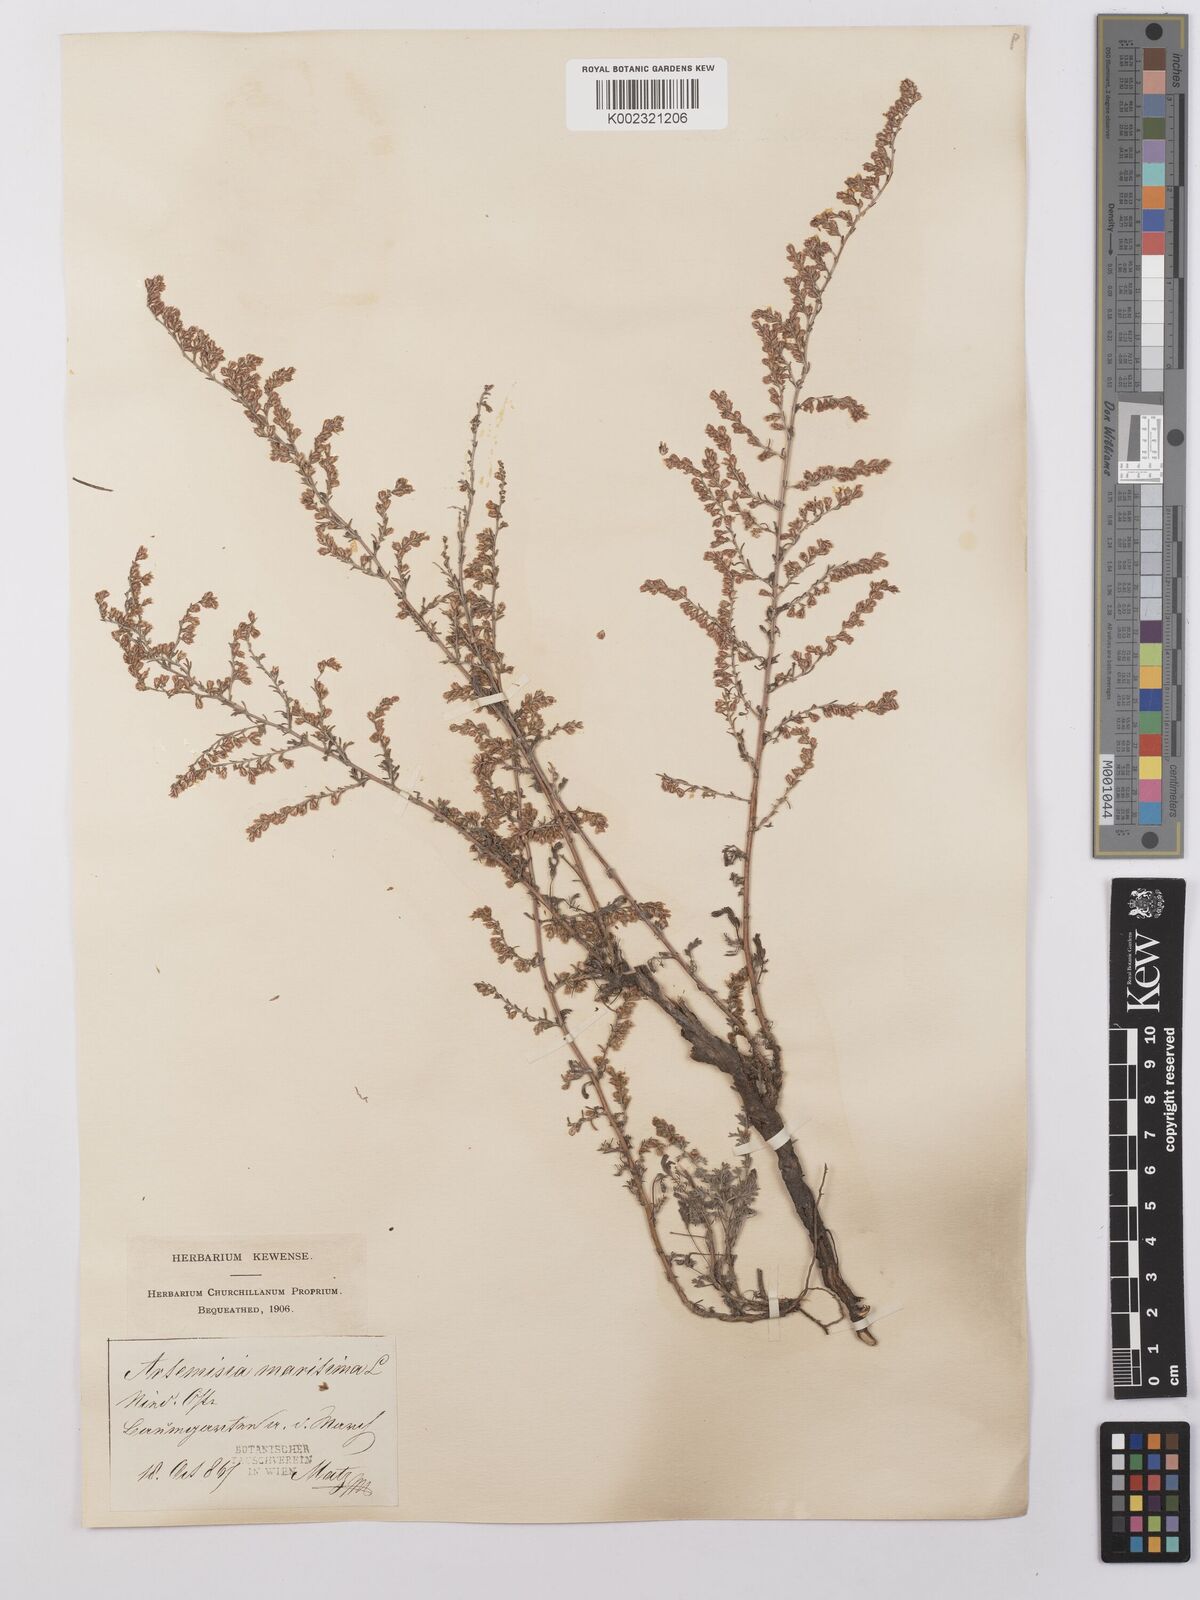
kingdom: Plantae
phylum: Tracheophyta
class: Magnoliopsida
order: Asterales
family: Asteraceae
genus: Artemisia
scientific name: Artemisia maritima
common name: Wormseed
